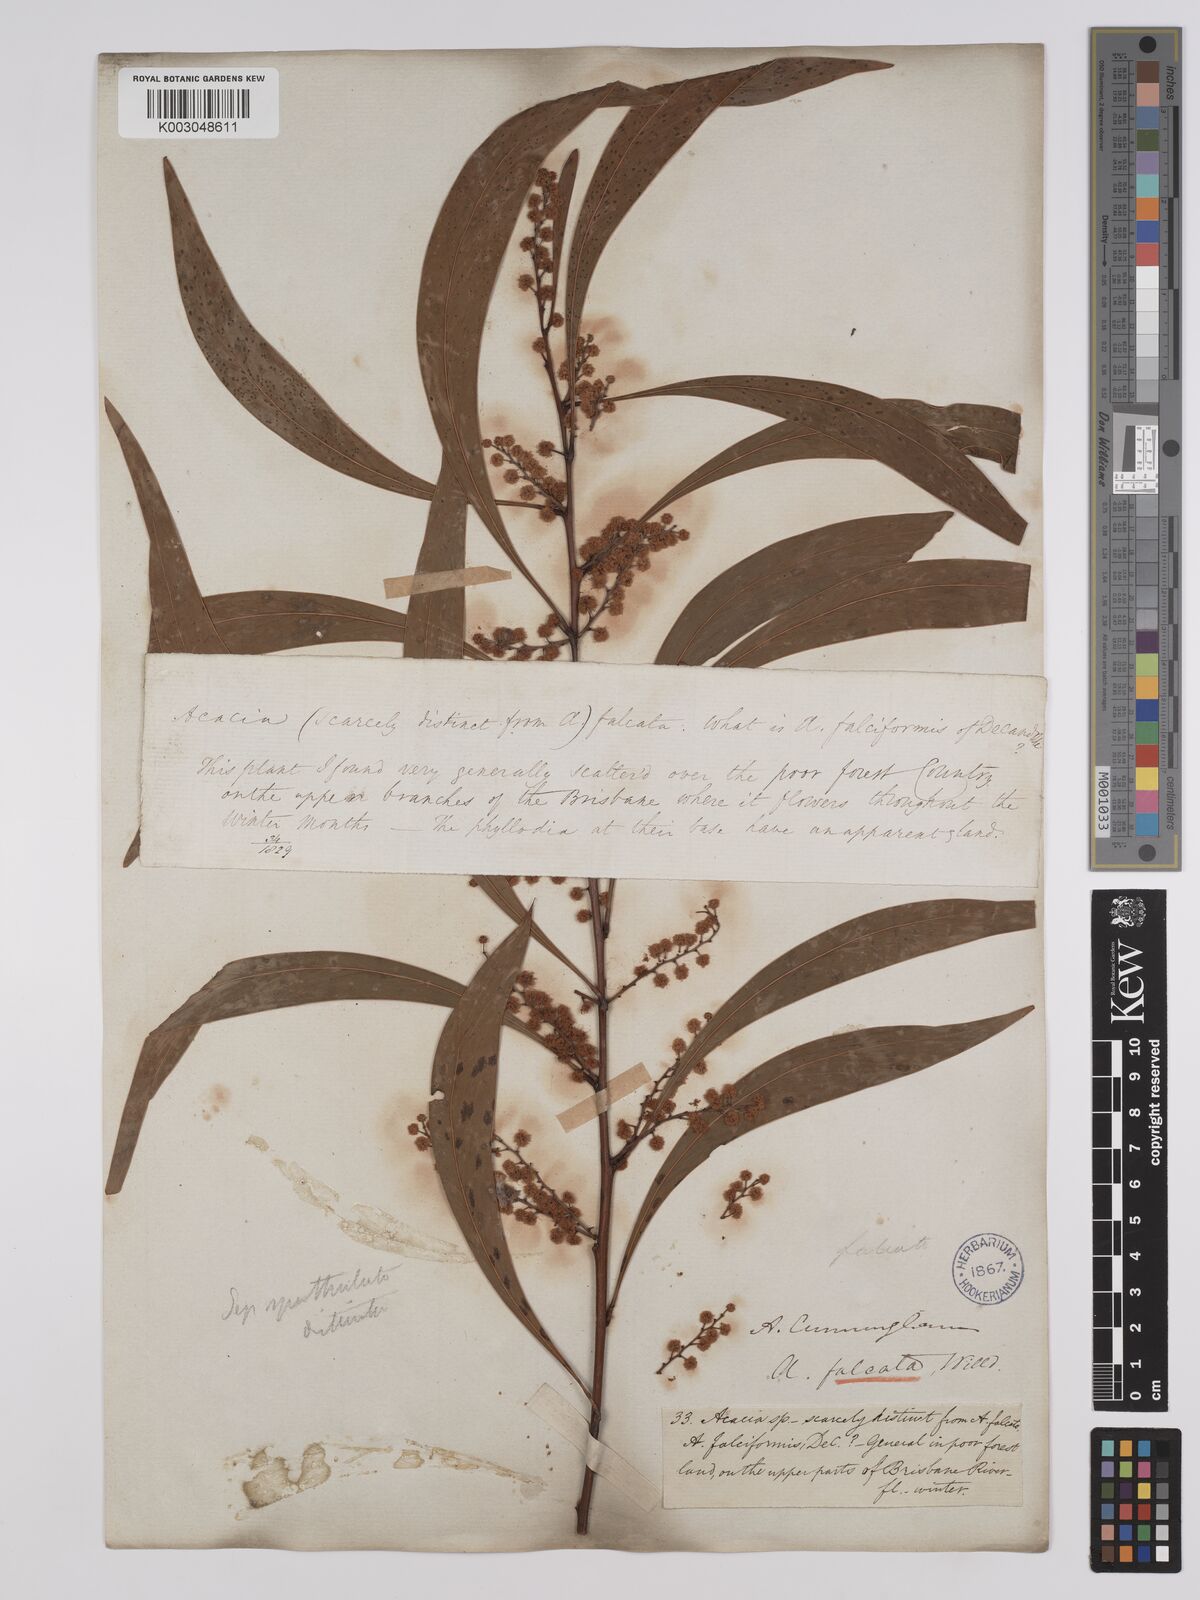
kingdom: Plantae
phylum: Tracheophyta
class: Magnoliopsida
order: Fabales
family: Fabaceae
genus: Acacia
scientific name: Acacia falcata
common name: Burra acacia
